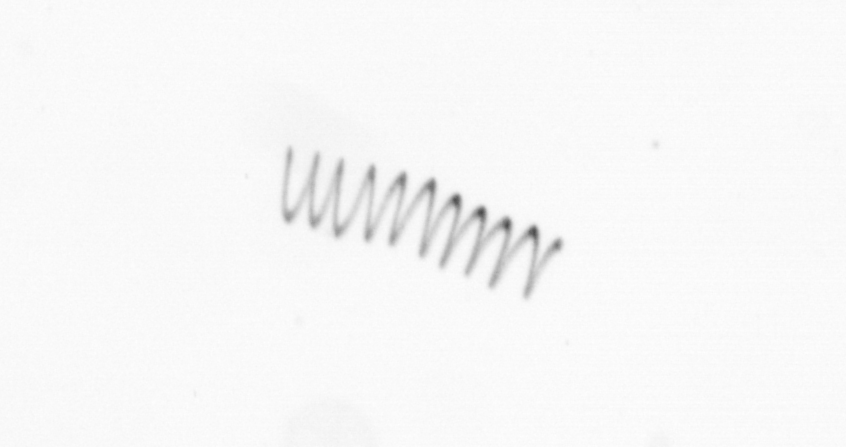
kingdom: Chromista
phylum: Ochrophyta
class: Bacillariophyceae
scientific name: Bacillariophyceae
